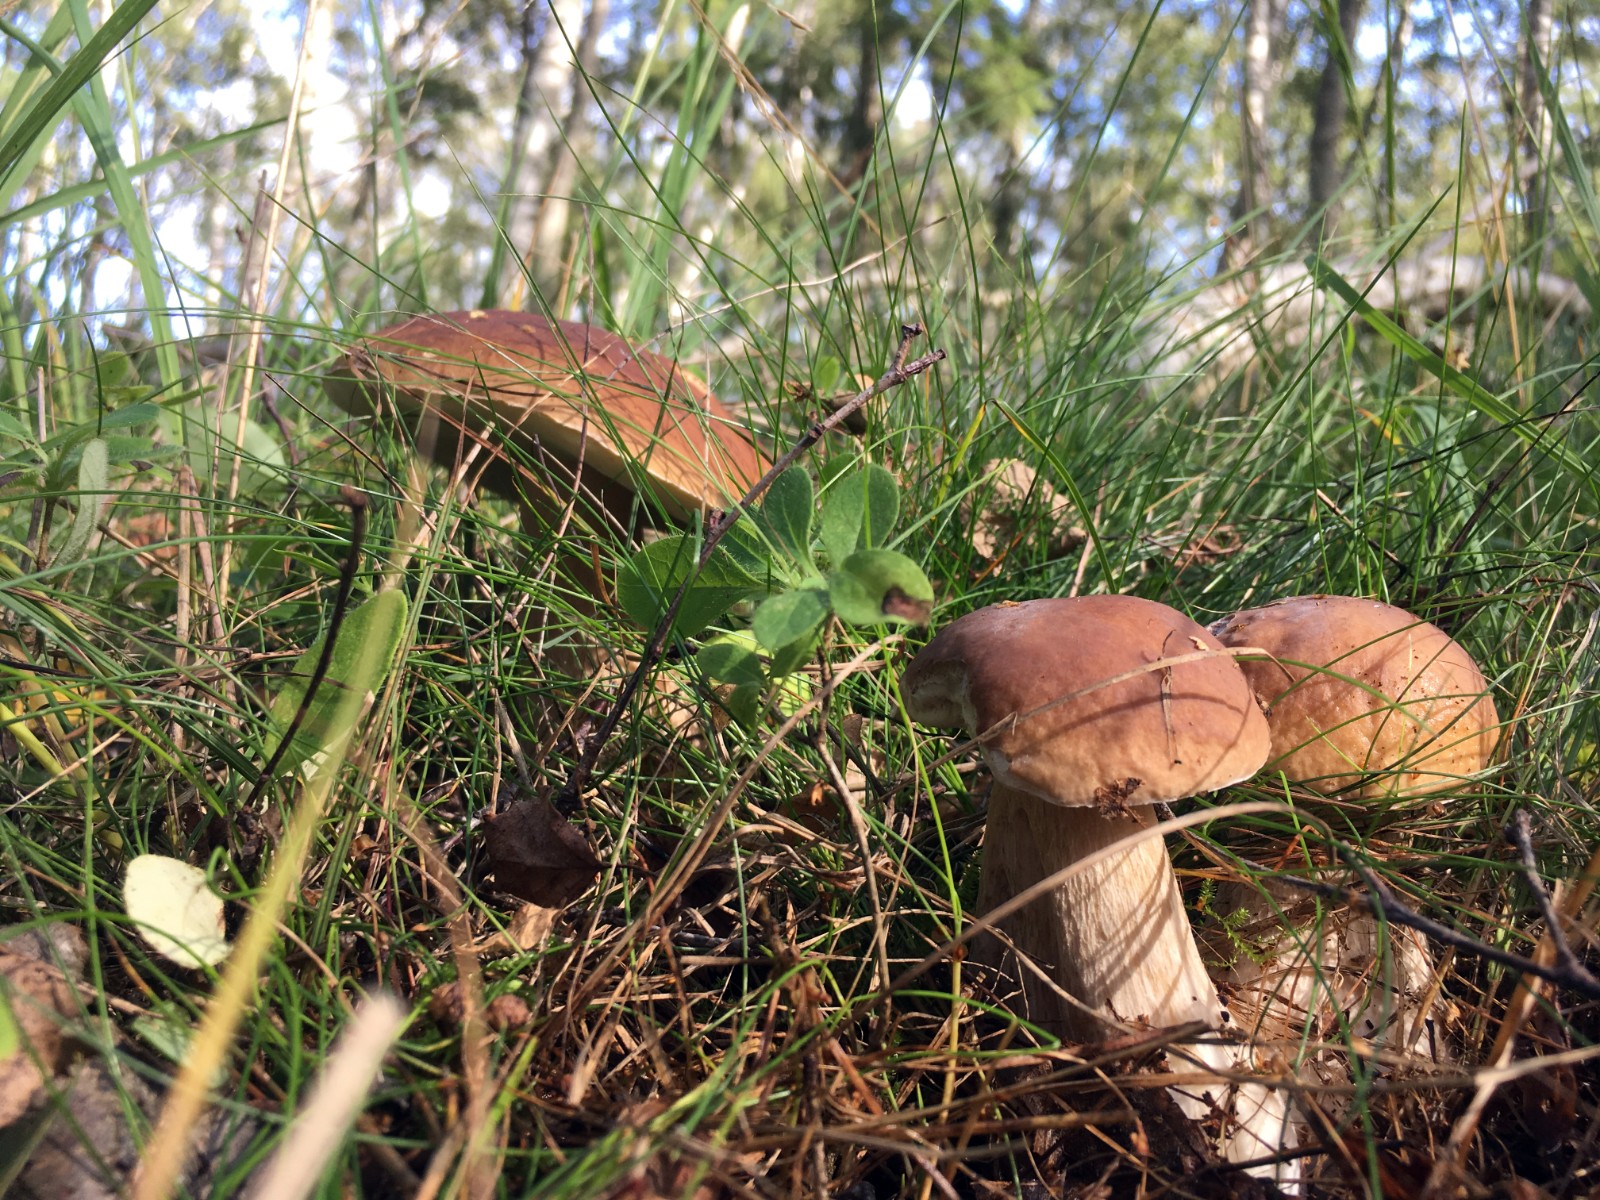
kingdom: Fungi
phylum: Basidiomycota
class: Agaricomycetes
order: Boletales
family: Boletaceae
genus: Boletus
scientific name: Boletus edulis
